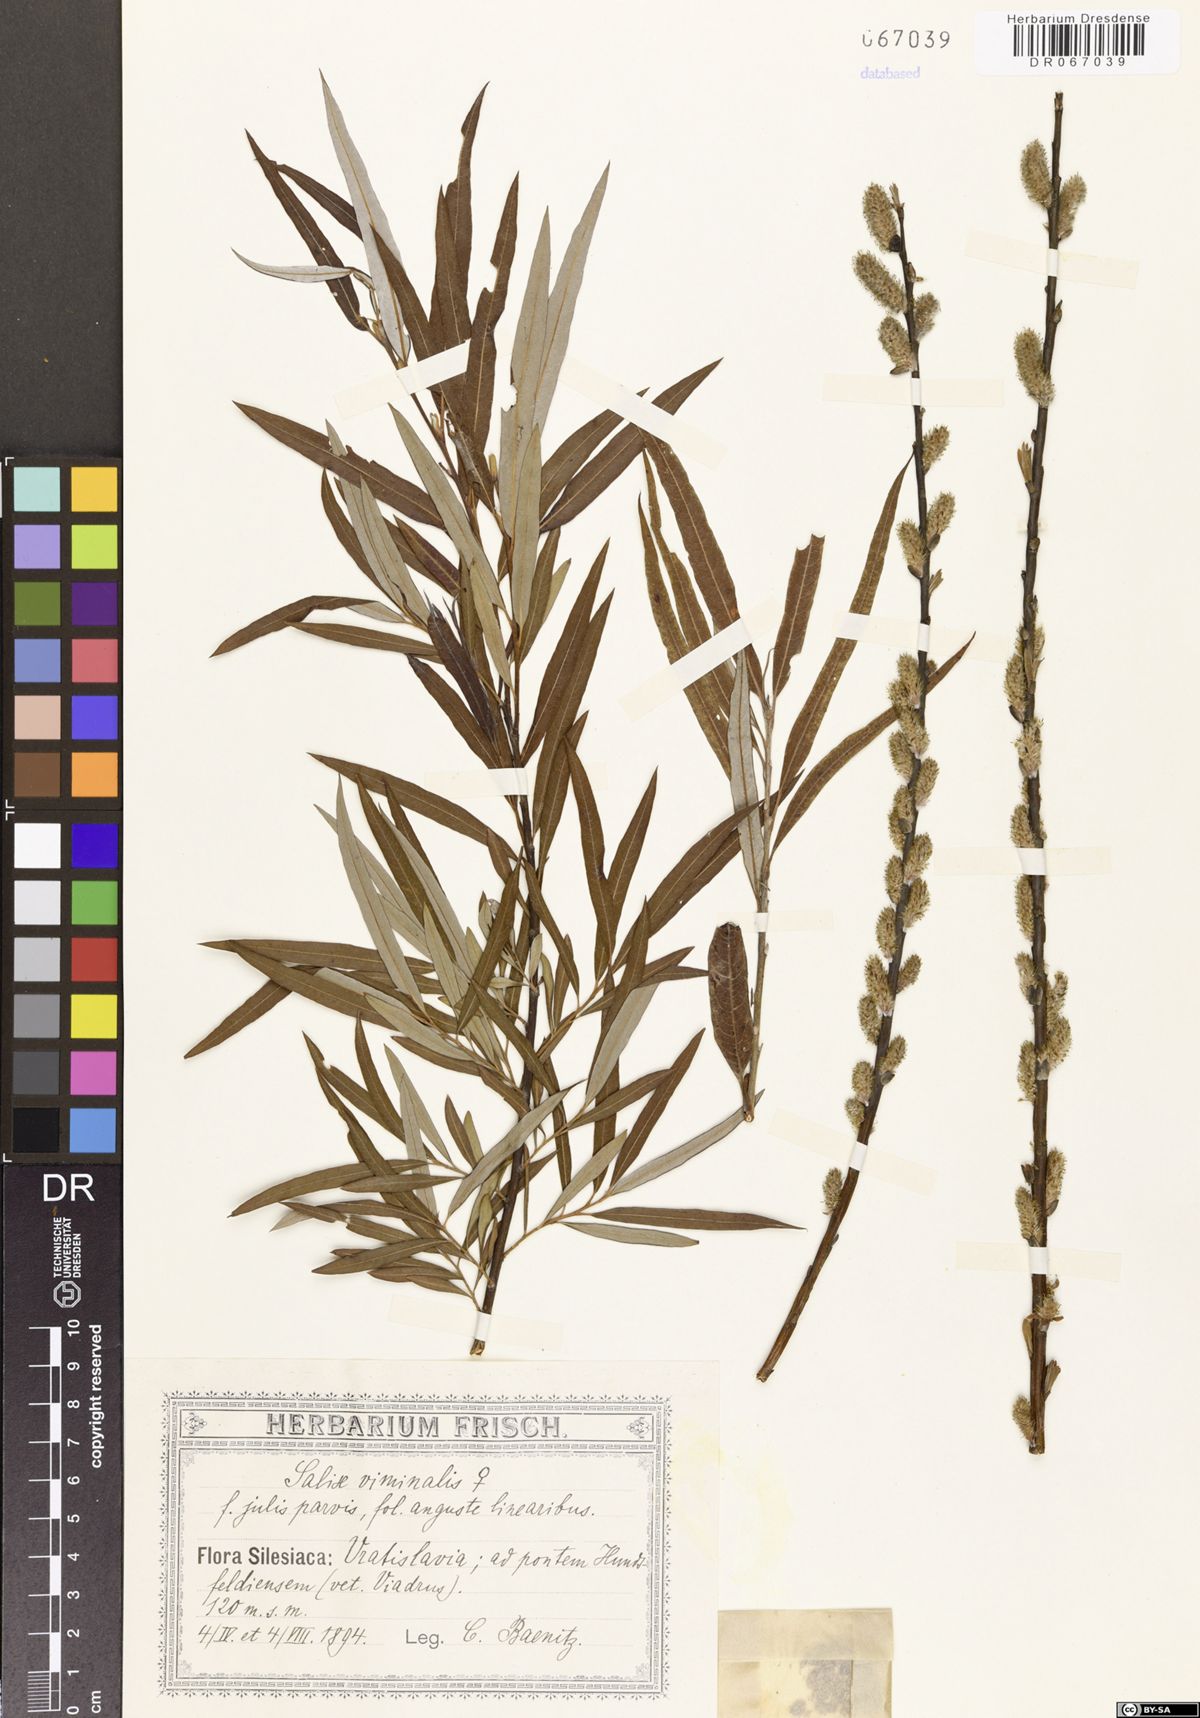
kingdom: Plantae
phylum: Tracheophyta
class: Magnoliopsida
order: Malpighiales
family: Salicaceae
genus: Salix
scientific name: Salix viminalis
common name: Osier
